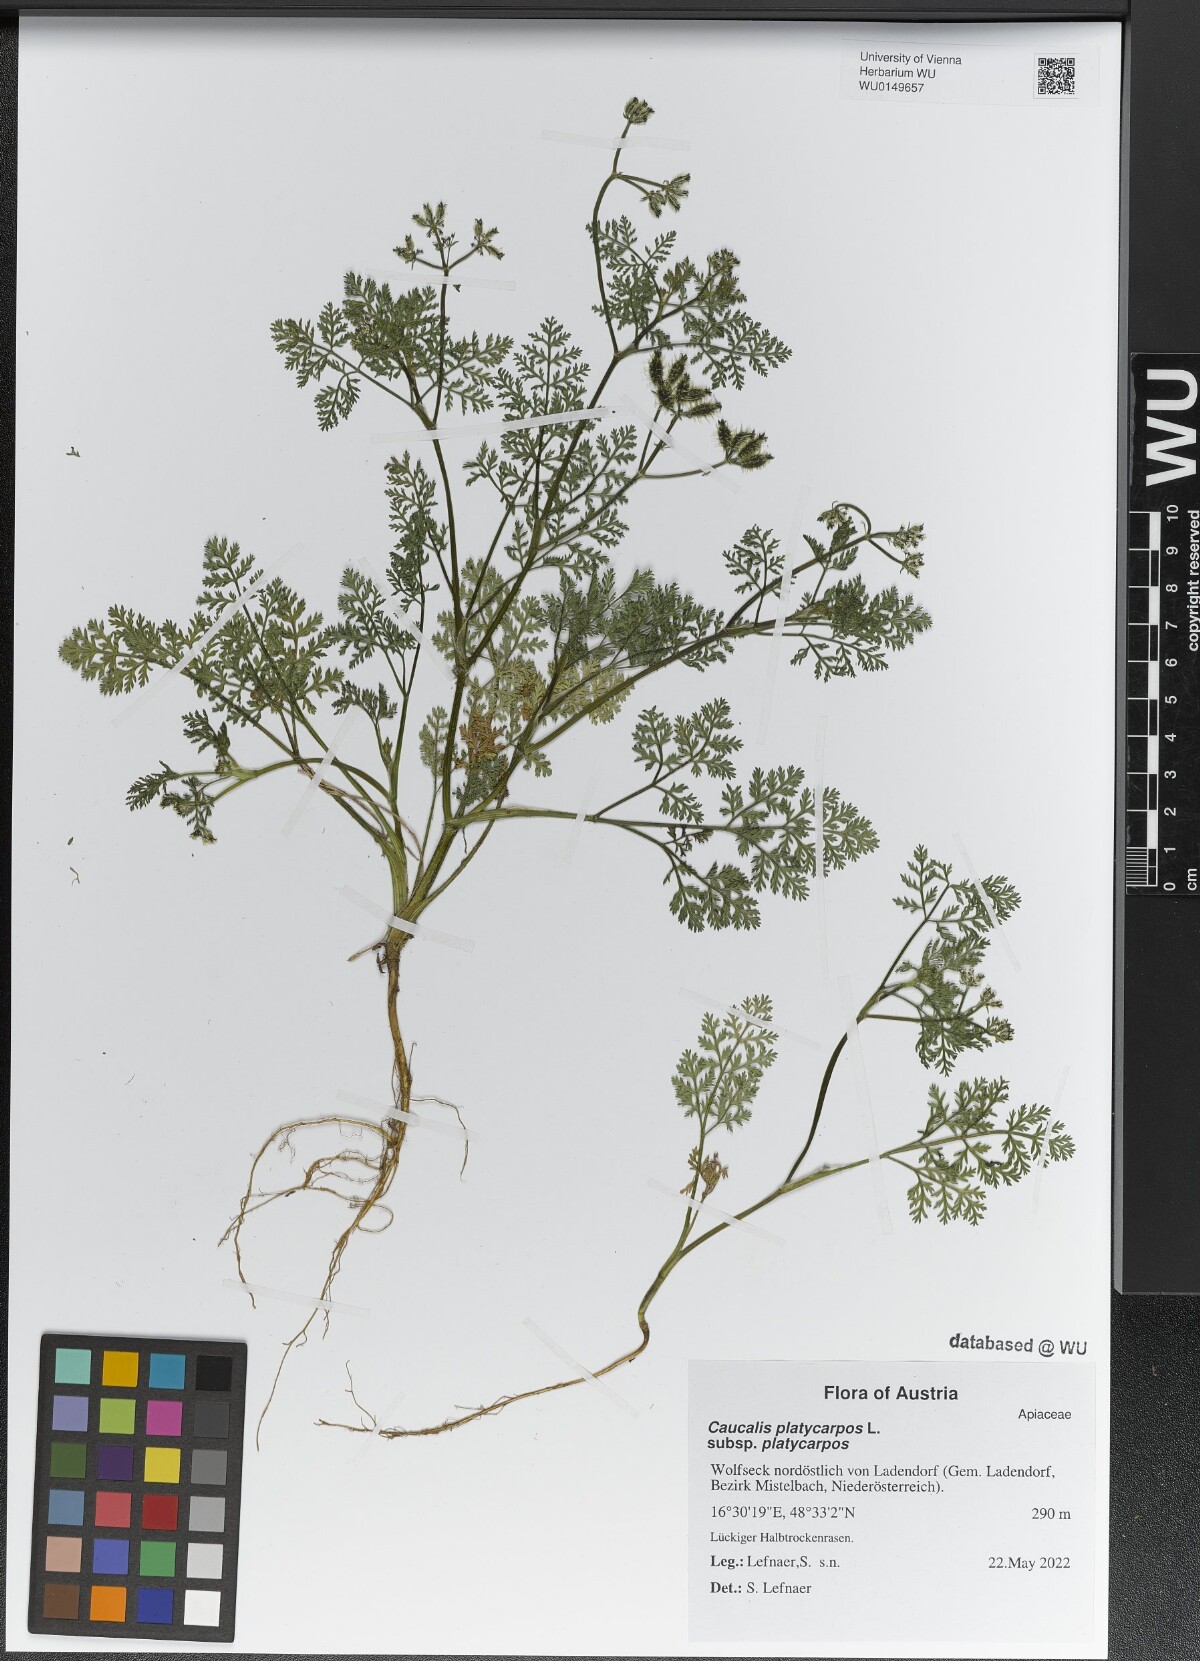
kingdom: Plantae
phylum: Tracheophyta
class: Magnoliopsida
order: Apiales
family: Apiaceae
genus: Caucalis
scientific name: Caucalis platycarpos
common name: Small bur-parsley
